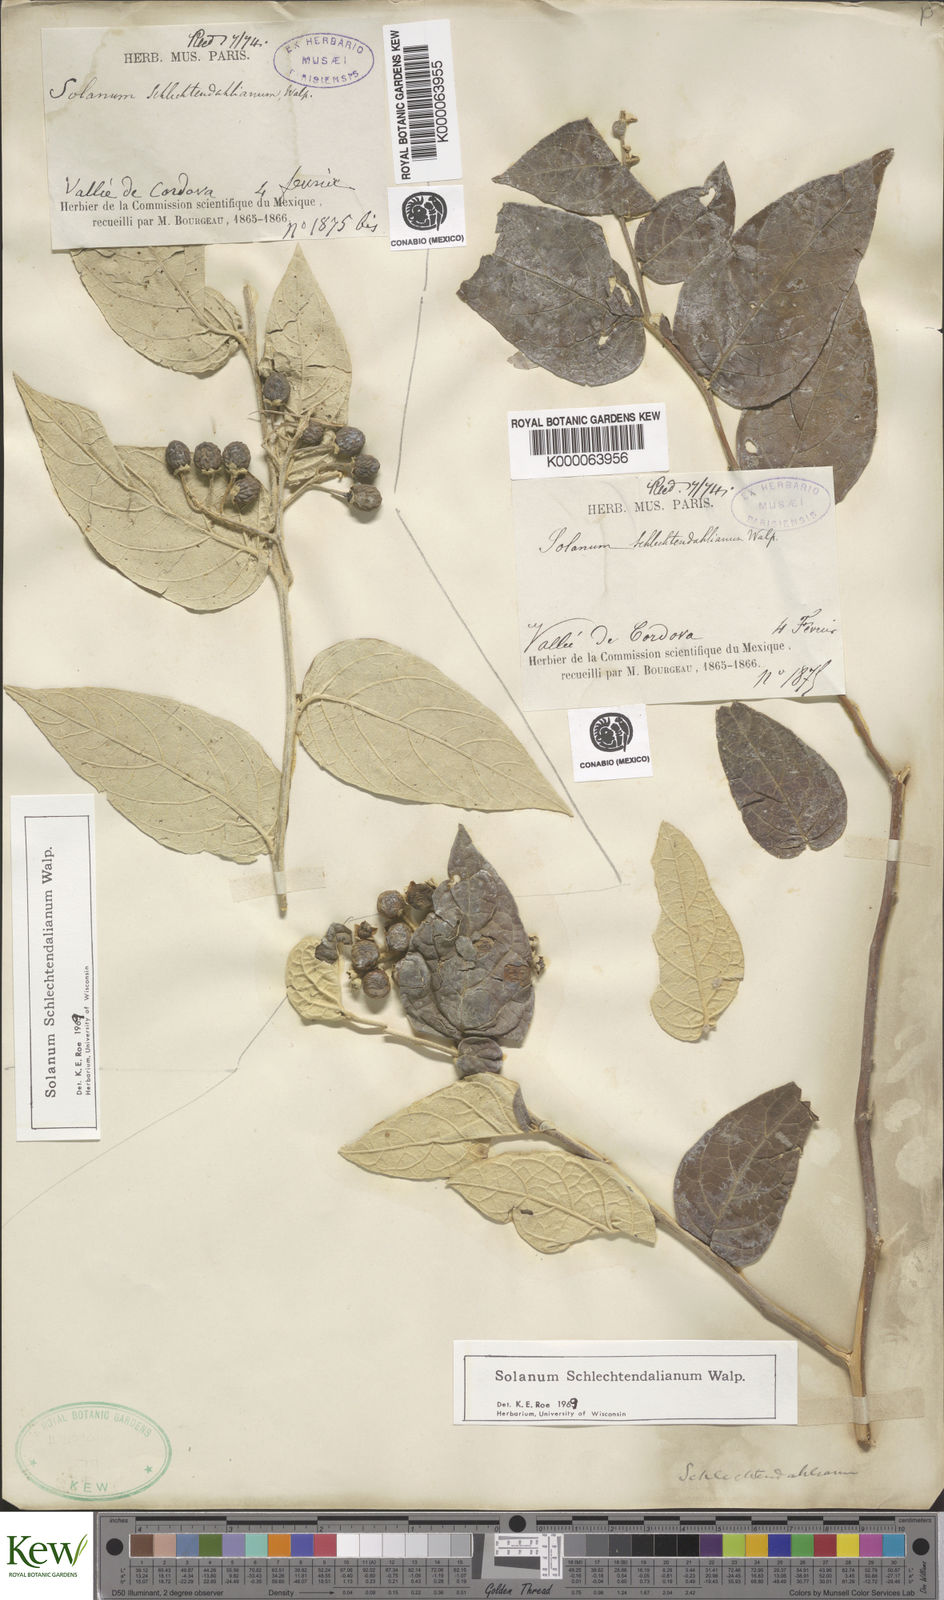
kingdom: Plantae
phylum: Tracheophyta
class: Magnoliopsida
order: Solanales
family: Solanaceae
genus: Solanum
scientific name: Solanum schlechtendalianum
